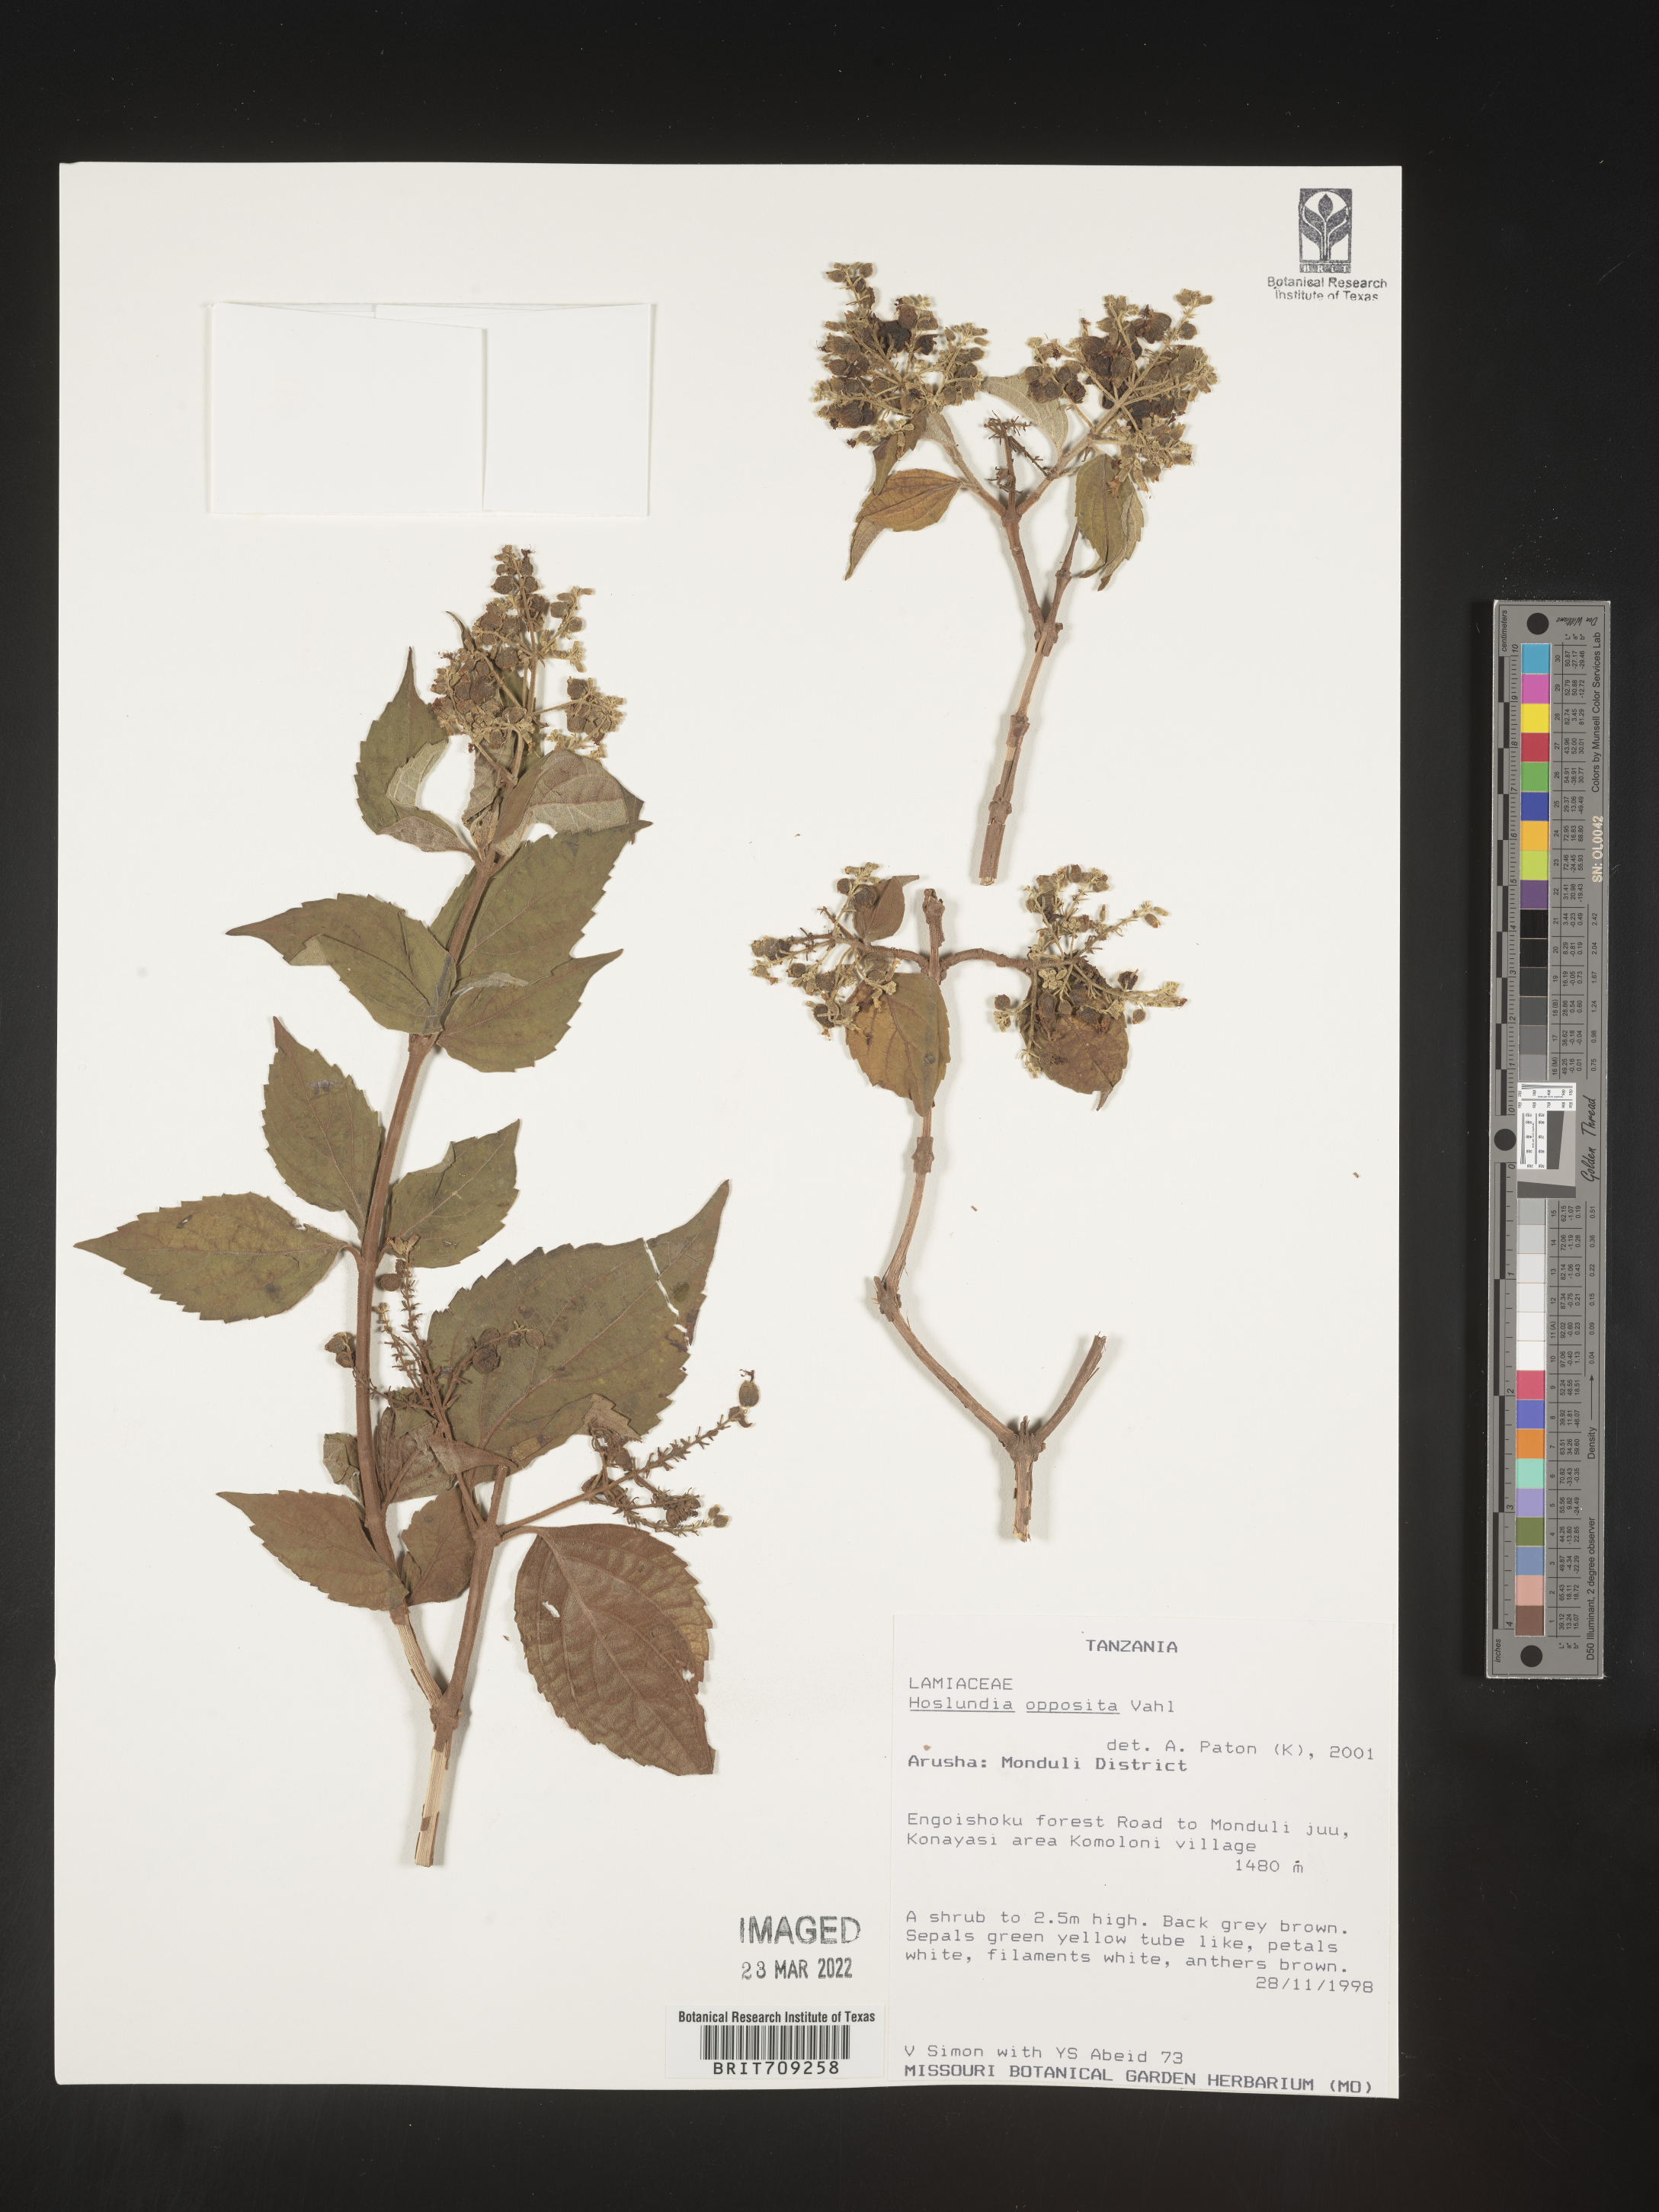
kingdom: Plantae
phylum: Tracheophyta
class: Magnoliopsida
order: Lamiales
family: Lamiaceae
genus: Hoslundia
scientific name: Hoslundia opposita
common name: Kamyuye
